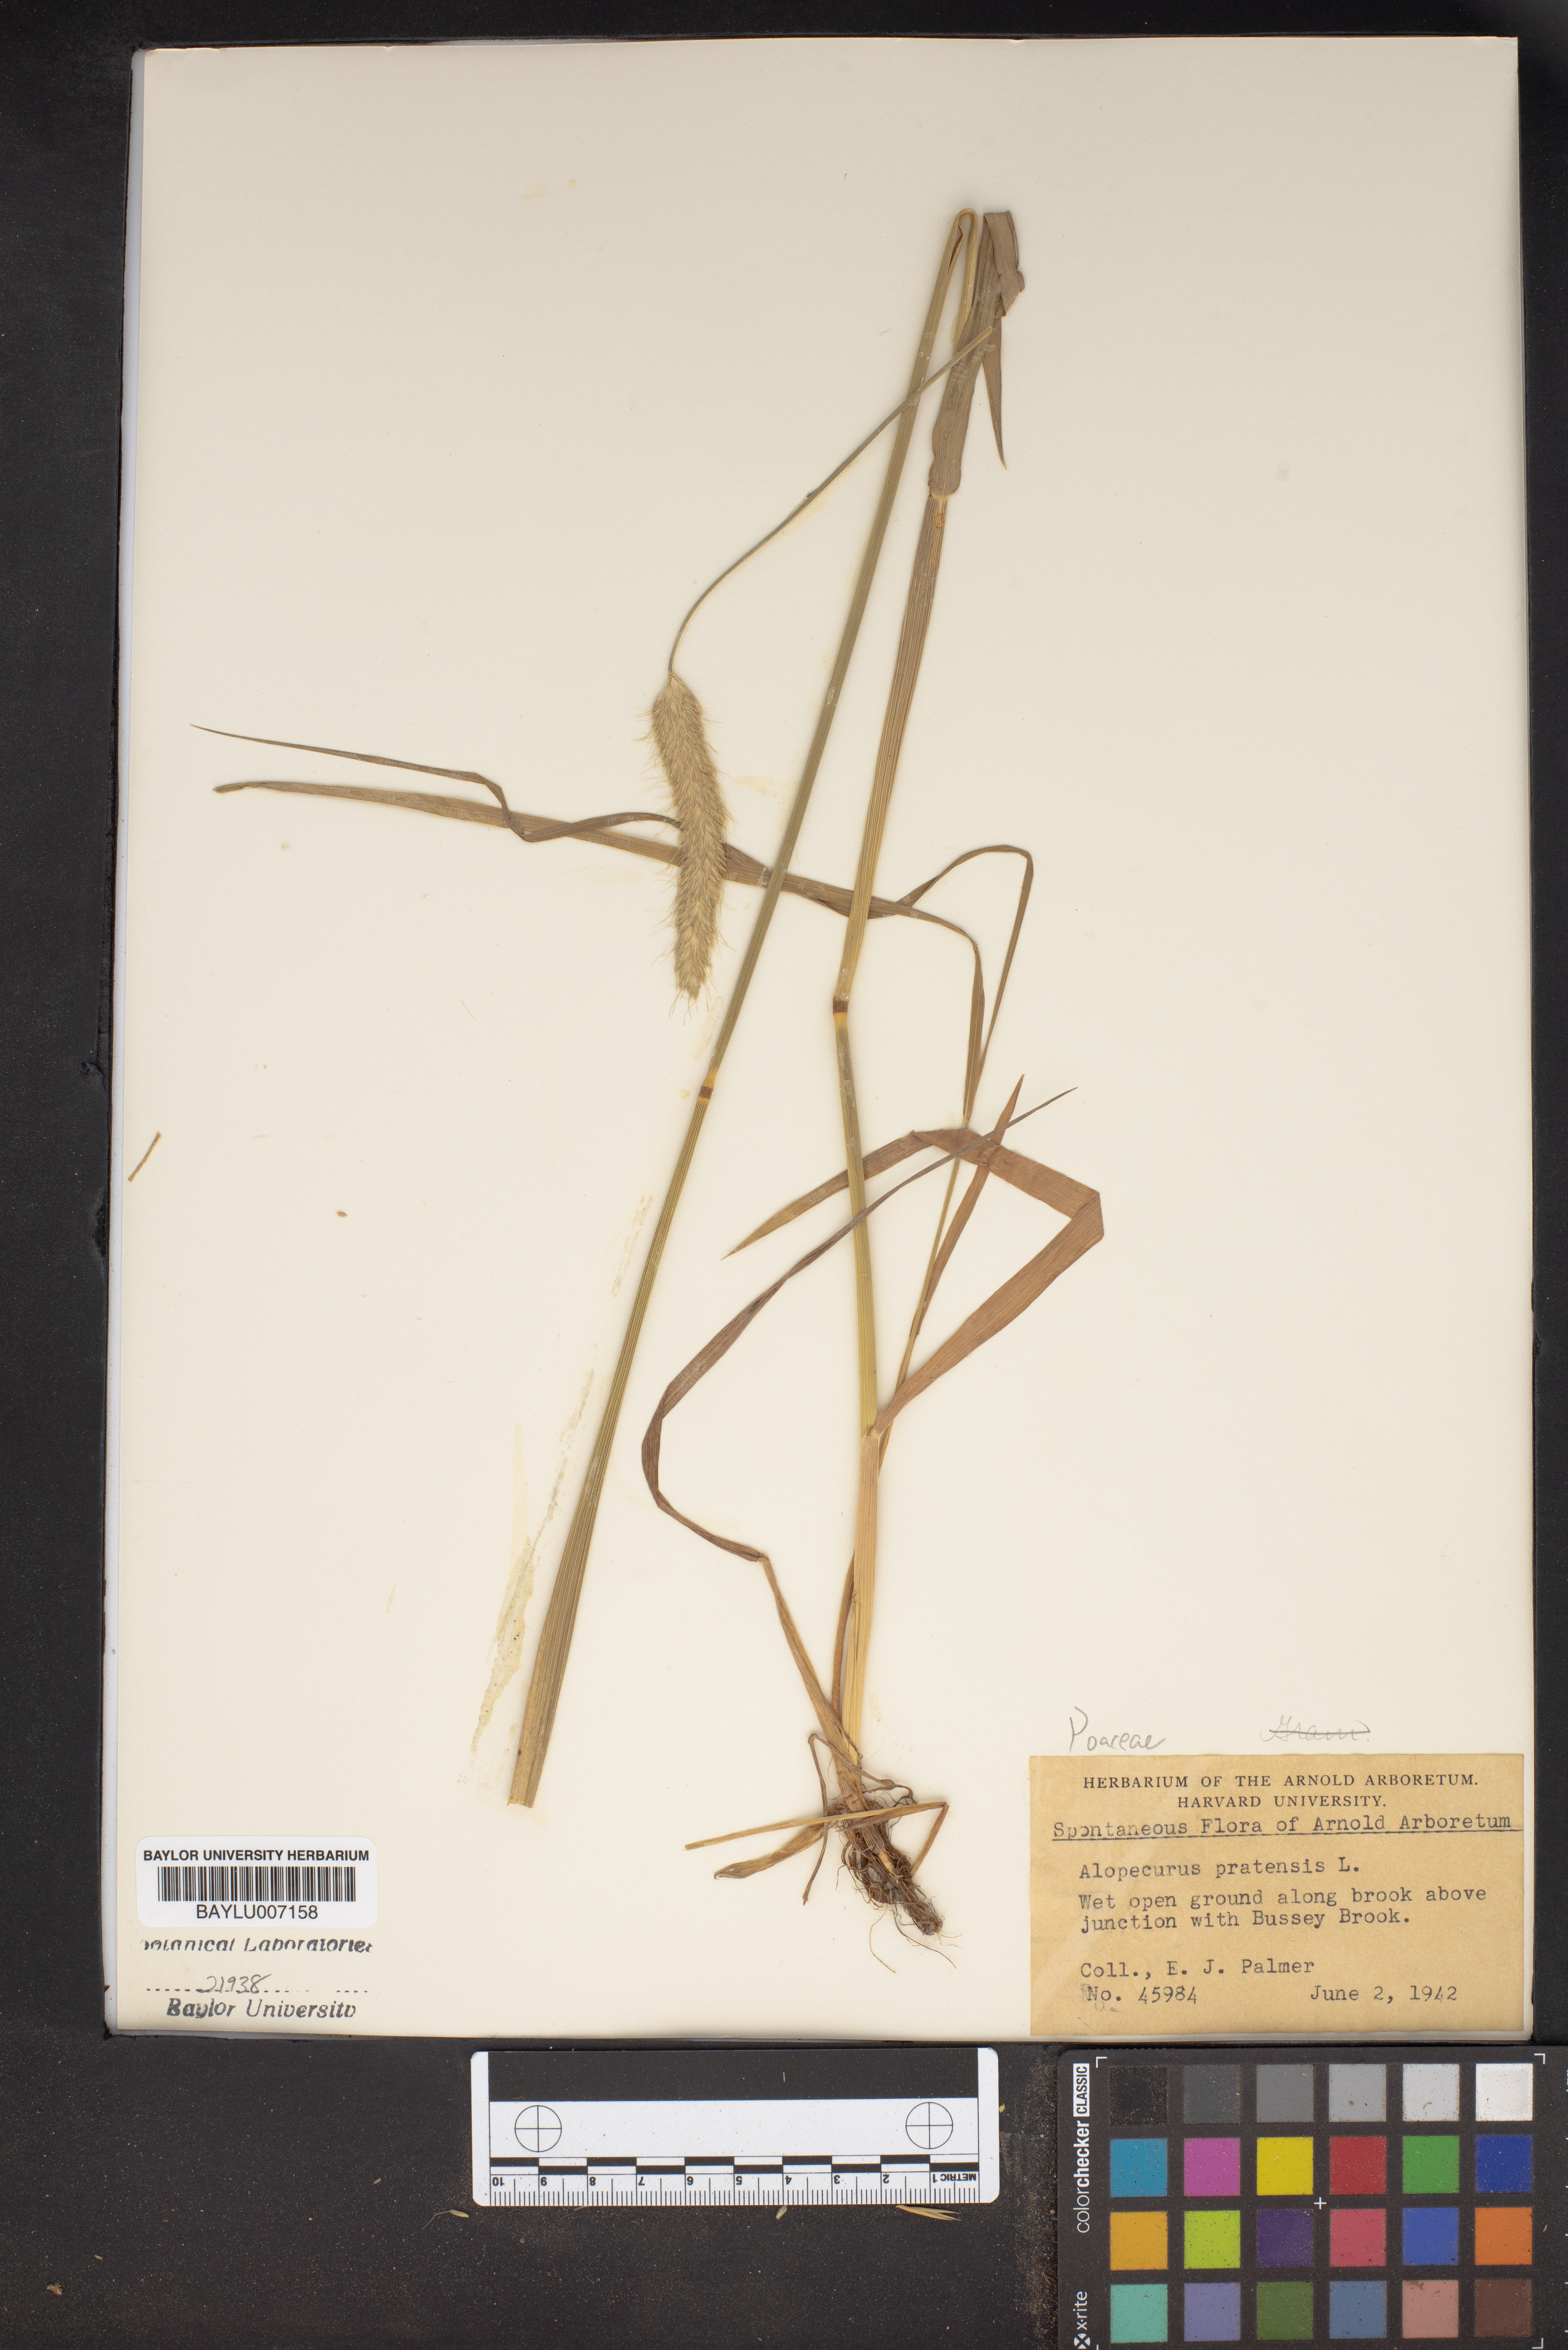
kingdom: Plantae
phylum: Tracheophyta
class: Liliopsida
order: Poales
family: Poaceae
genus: Alopecurus
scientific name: Alopecurus pratensis
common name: Meadow foxtail
